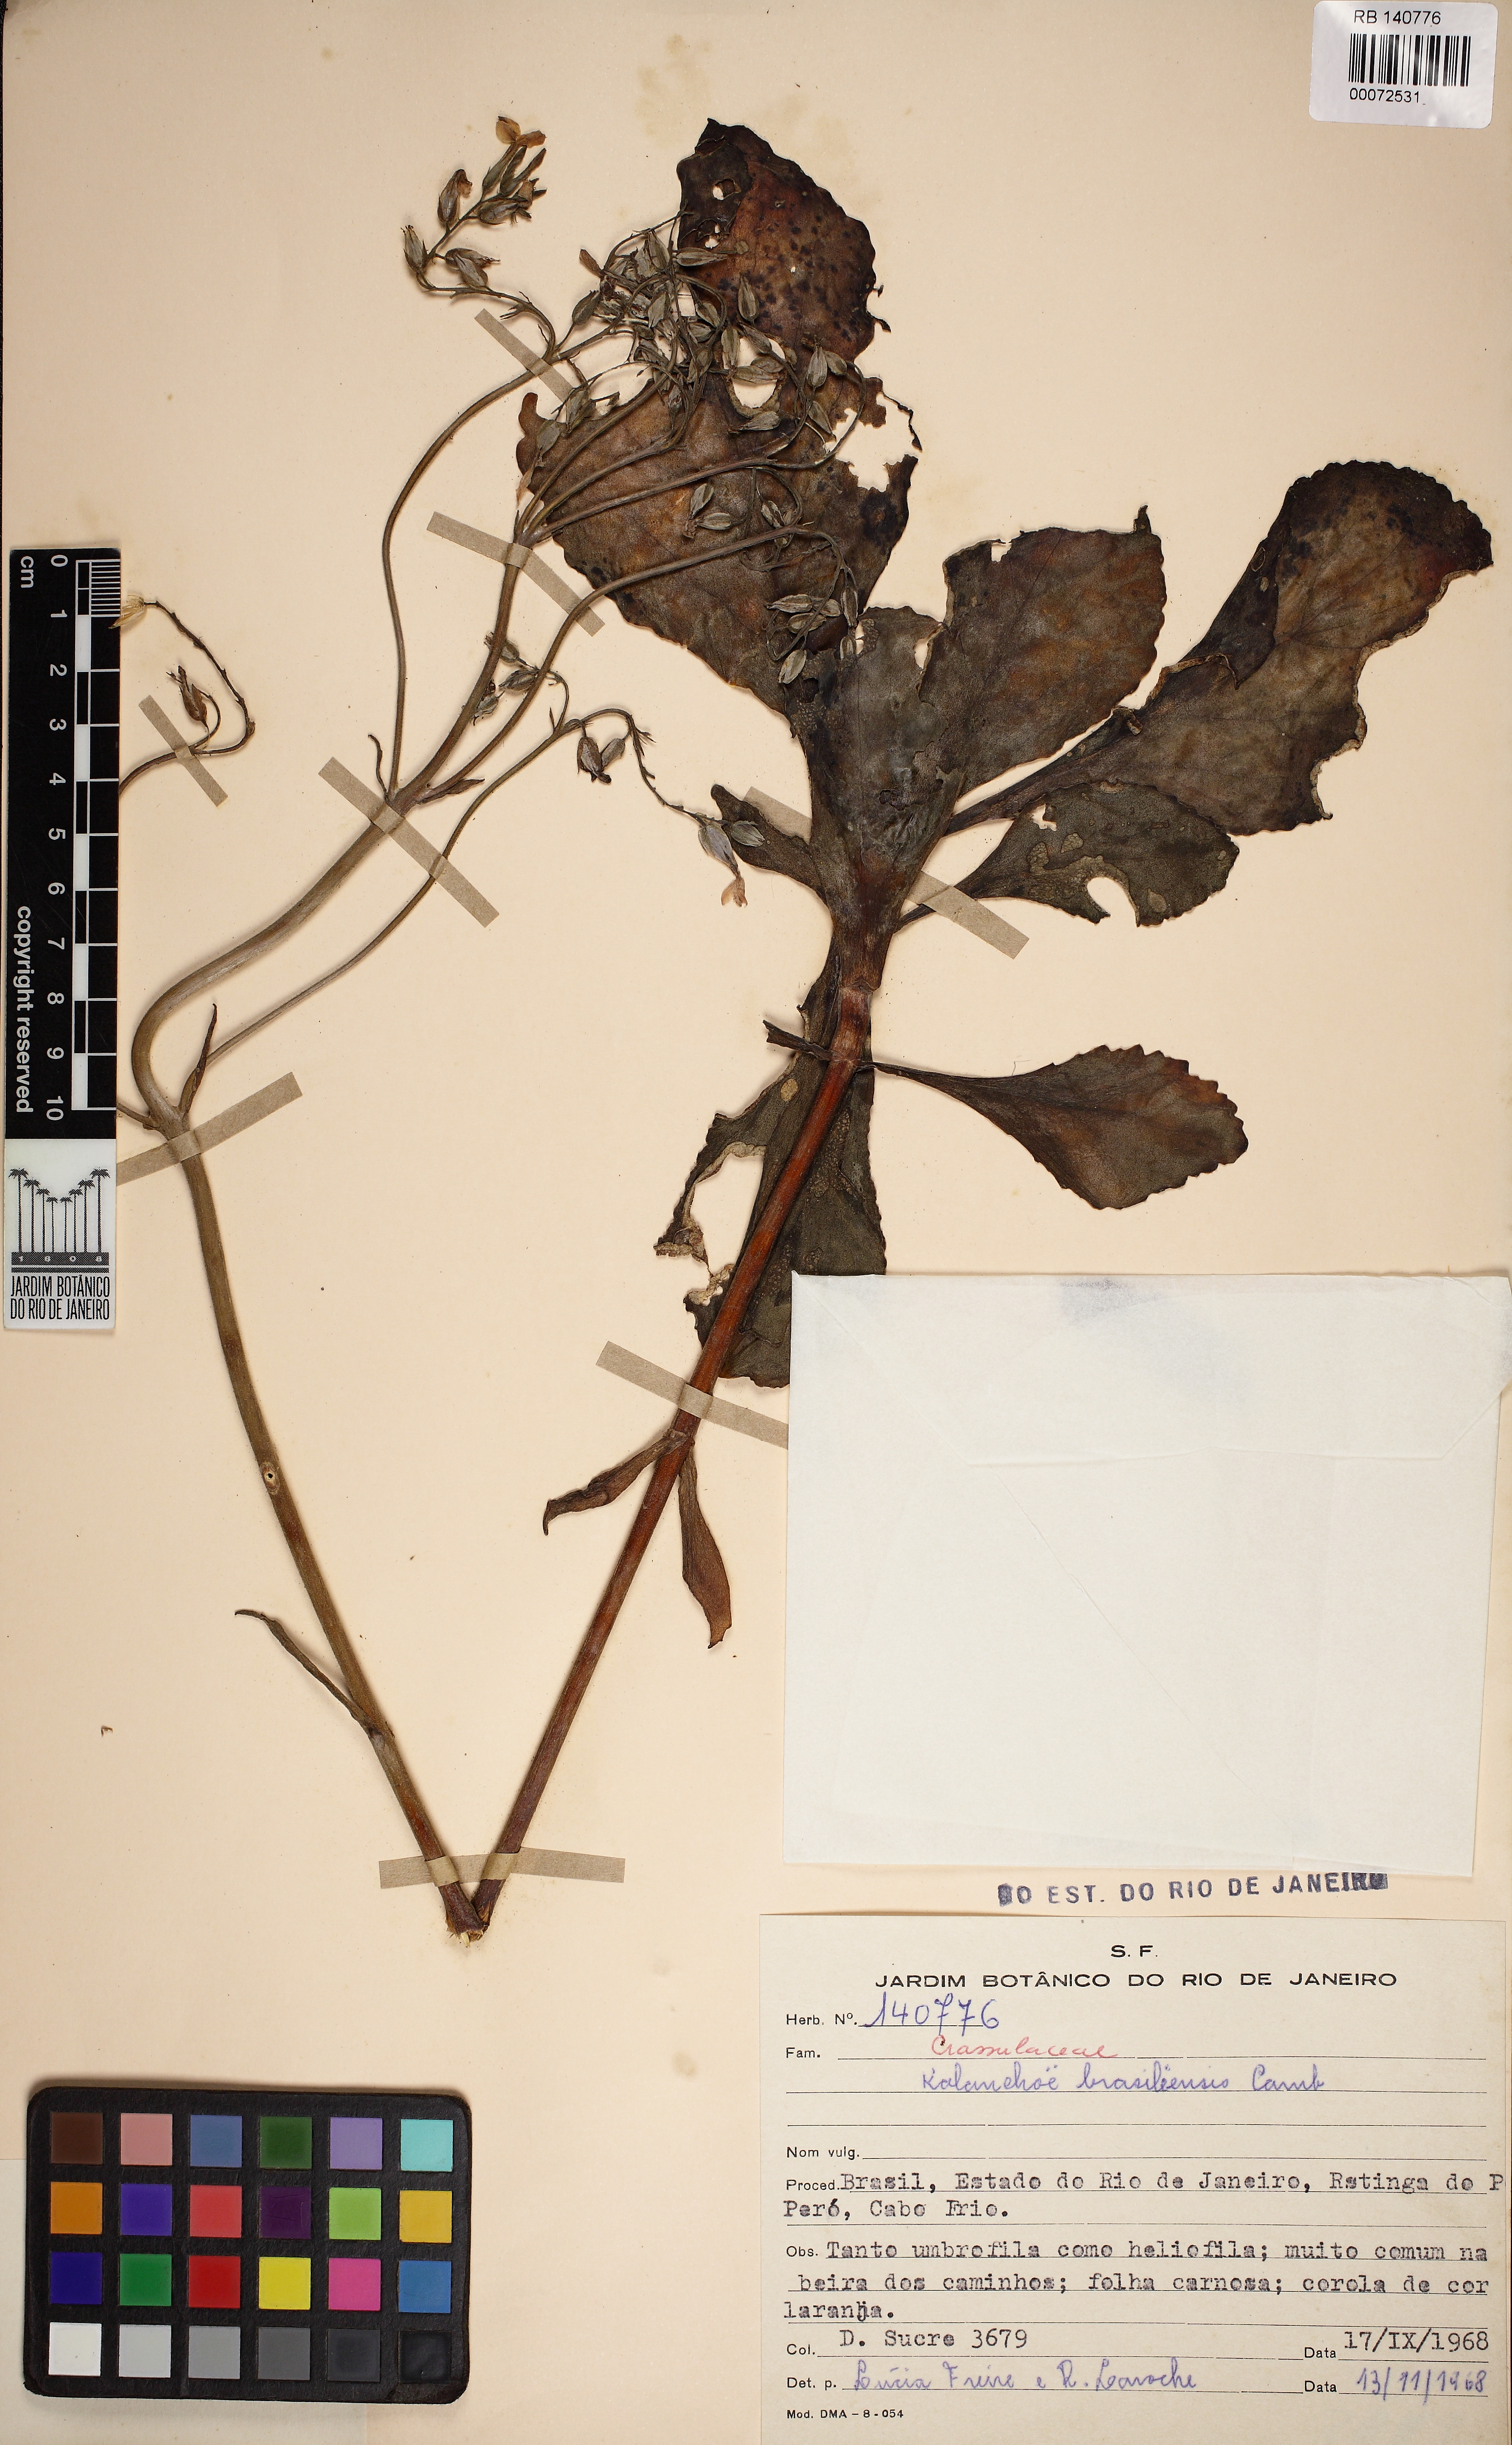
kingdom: Plantae
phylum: Tracheophyta
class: Magnoliopsida
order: Saxifragales
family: Crassulaceae
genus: Kalanchoe
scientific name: Kalanchoe crenata
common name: Neverdie
